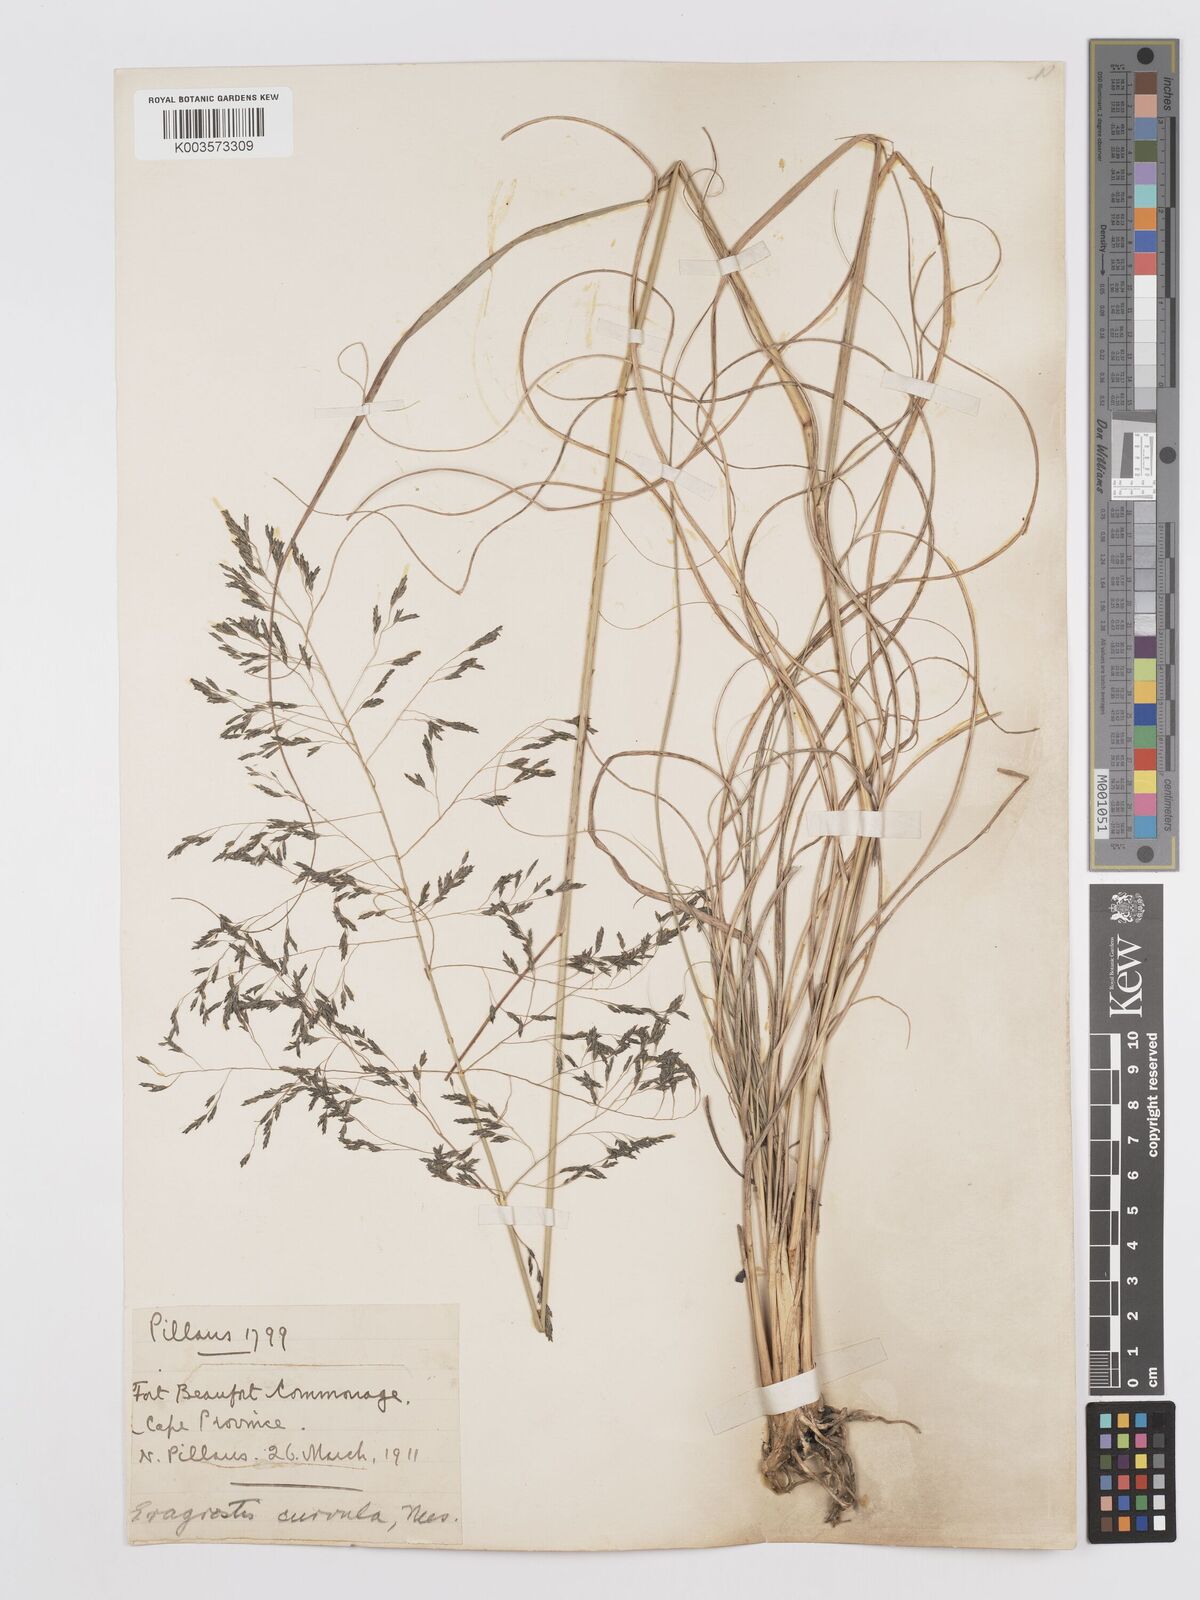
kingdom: Plantae
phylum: Tracheophyta
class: Liliopsida
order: Poales
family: Poaceae
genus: Eragrostis
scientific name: Eragrostis curvula
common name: African love-grass
